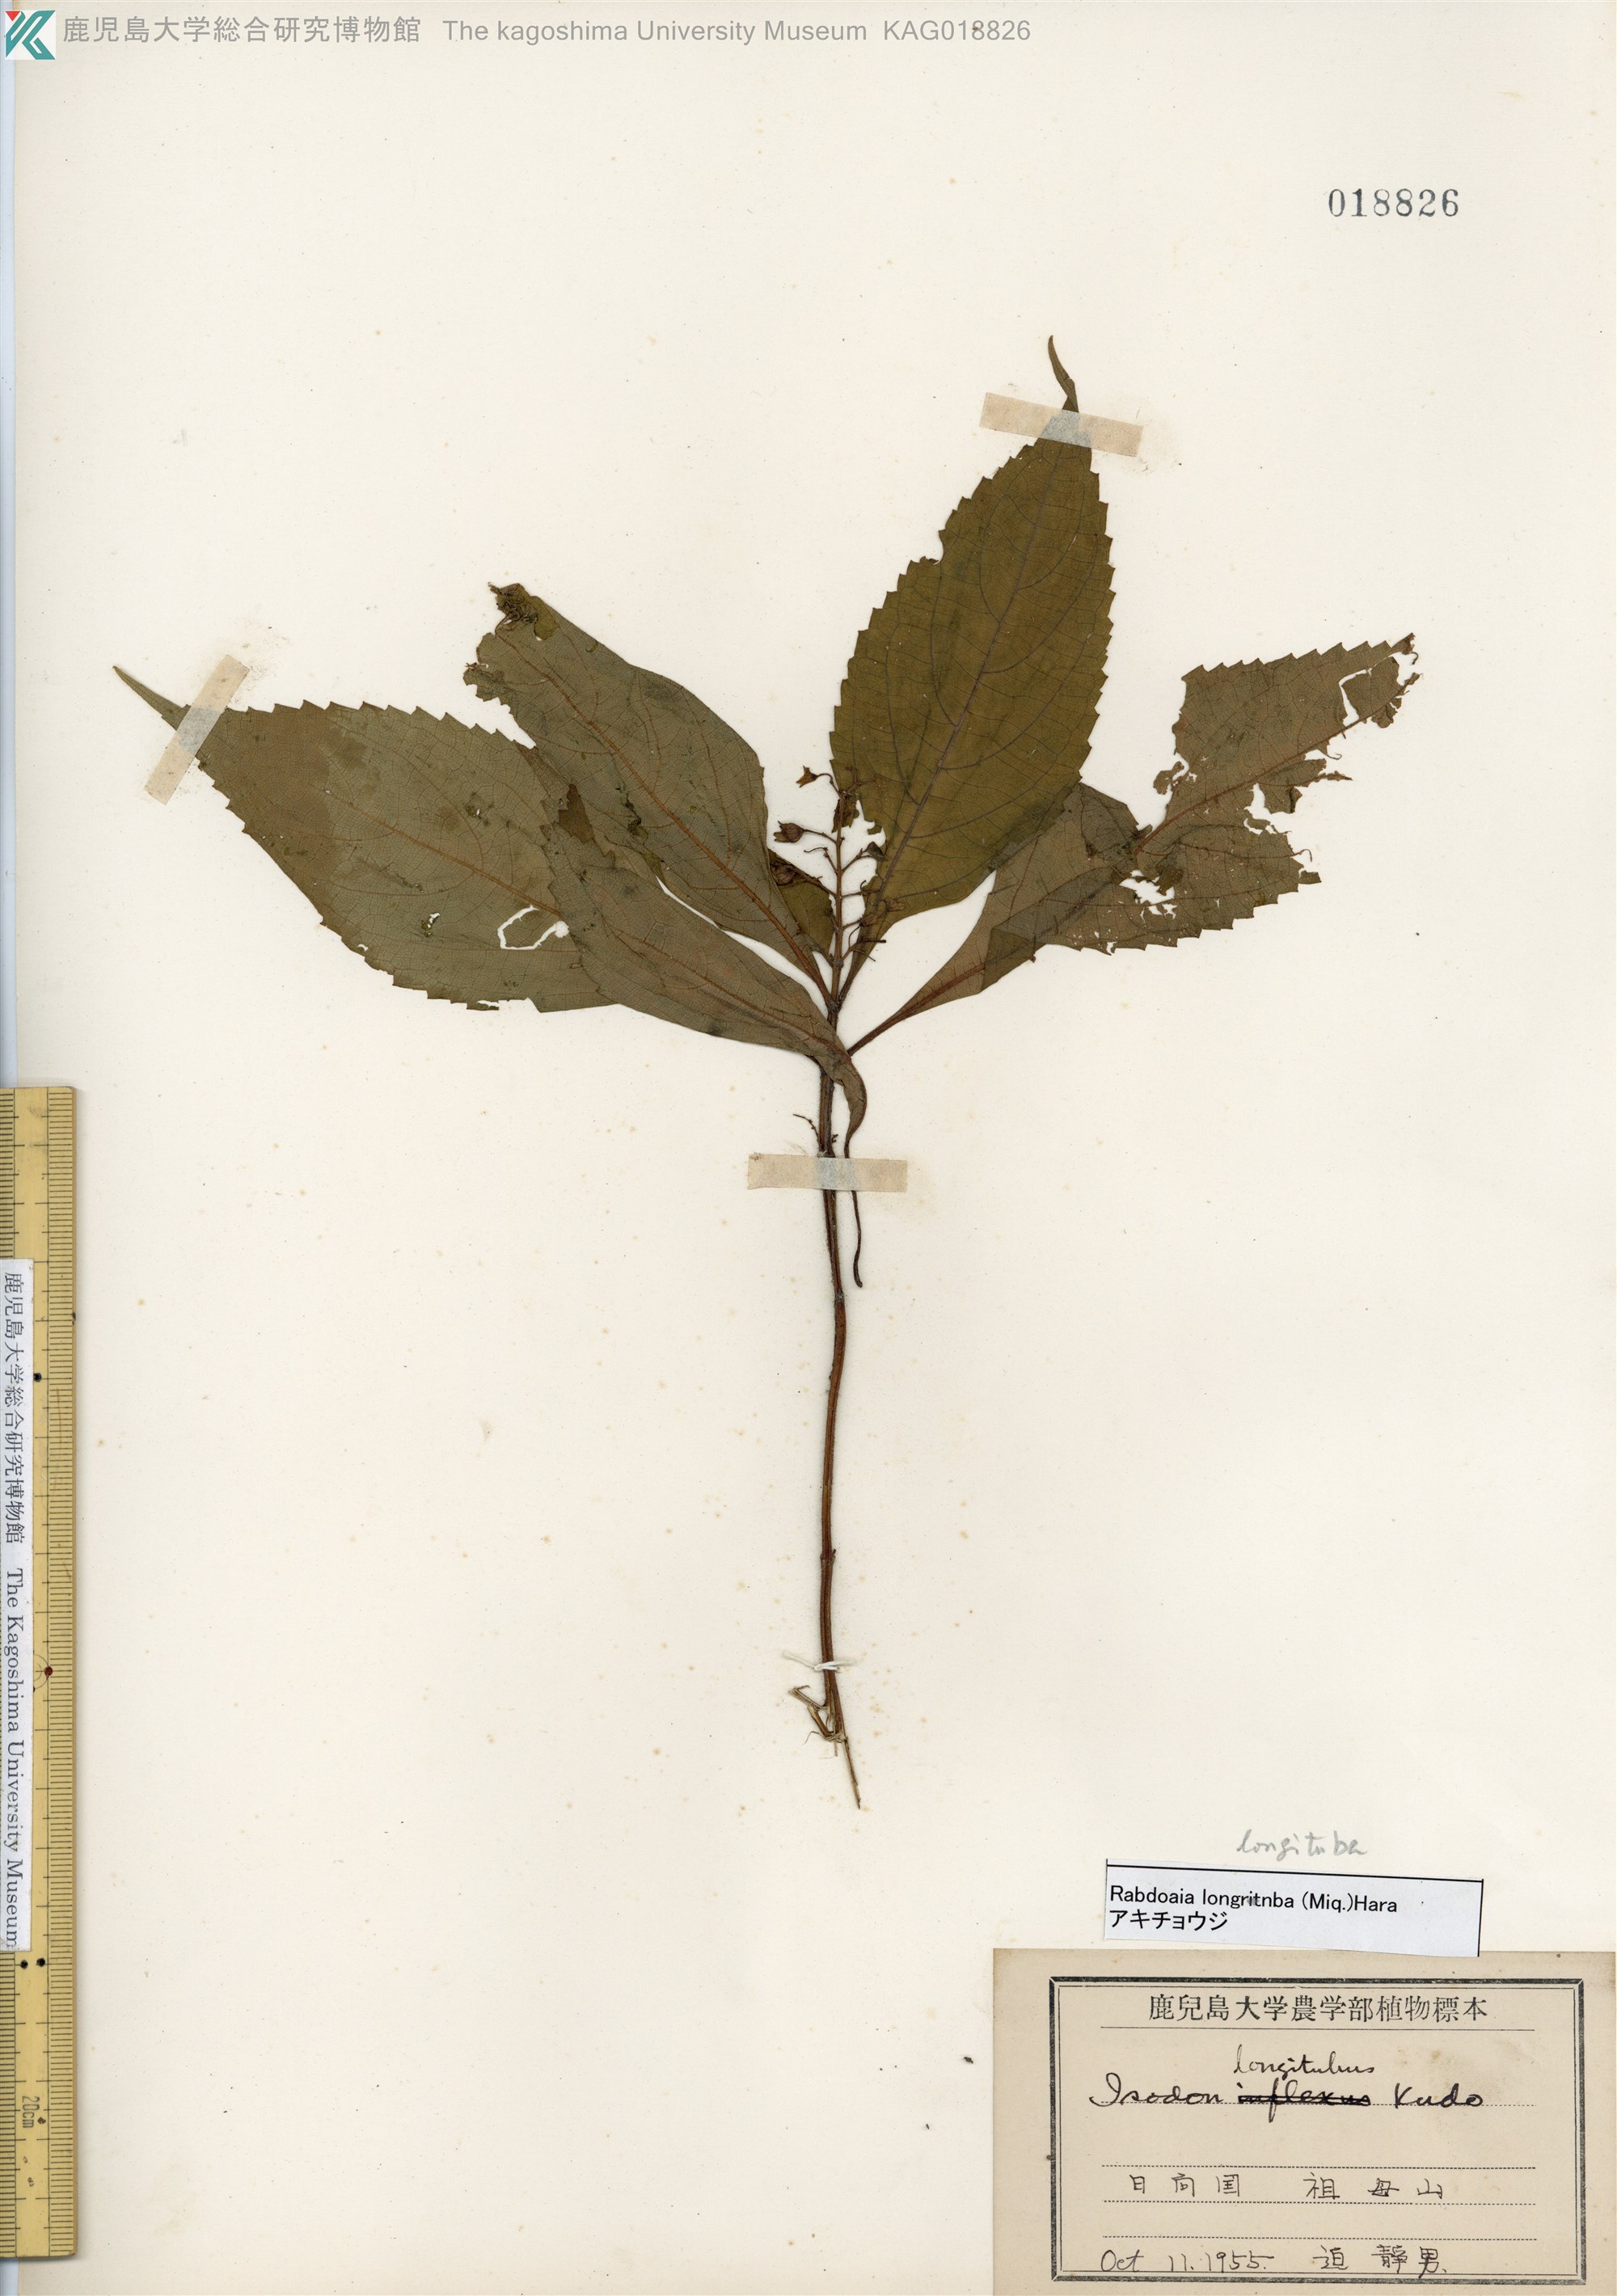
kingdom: Plantae
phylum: Tracheophyta
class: Magnoliopsida
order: Lamiales
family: Lamiaceae
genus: Isodon
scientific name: Isodon longitubus
